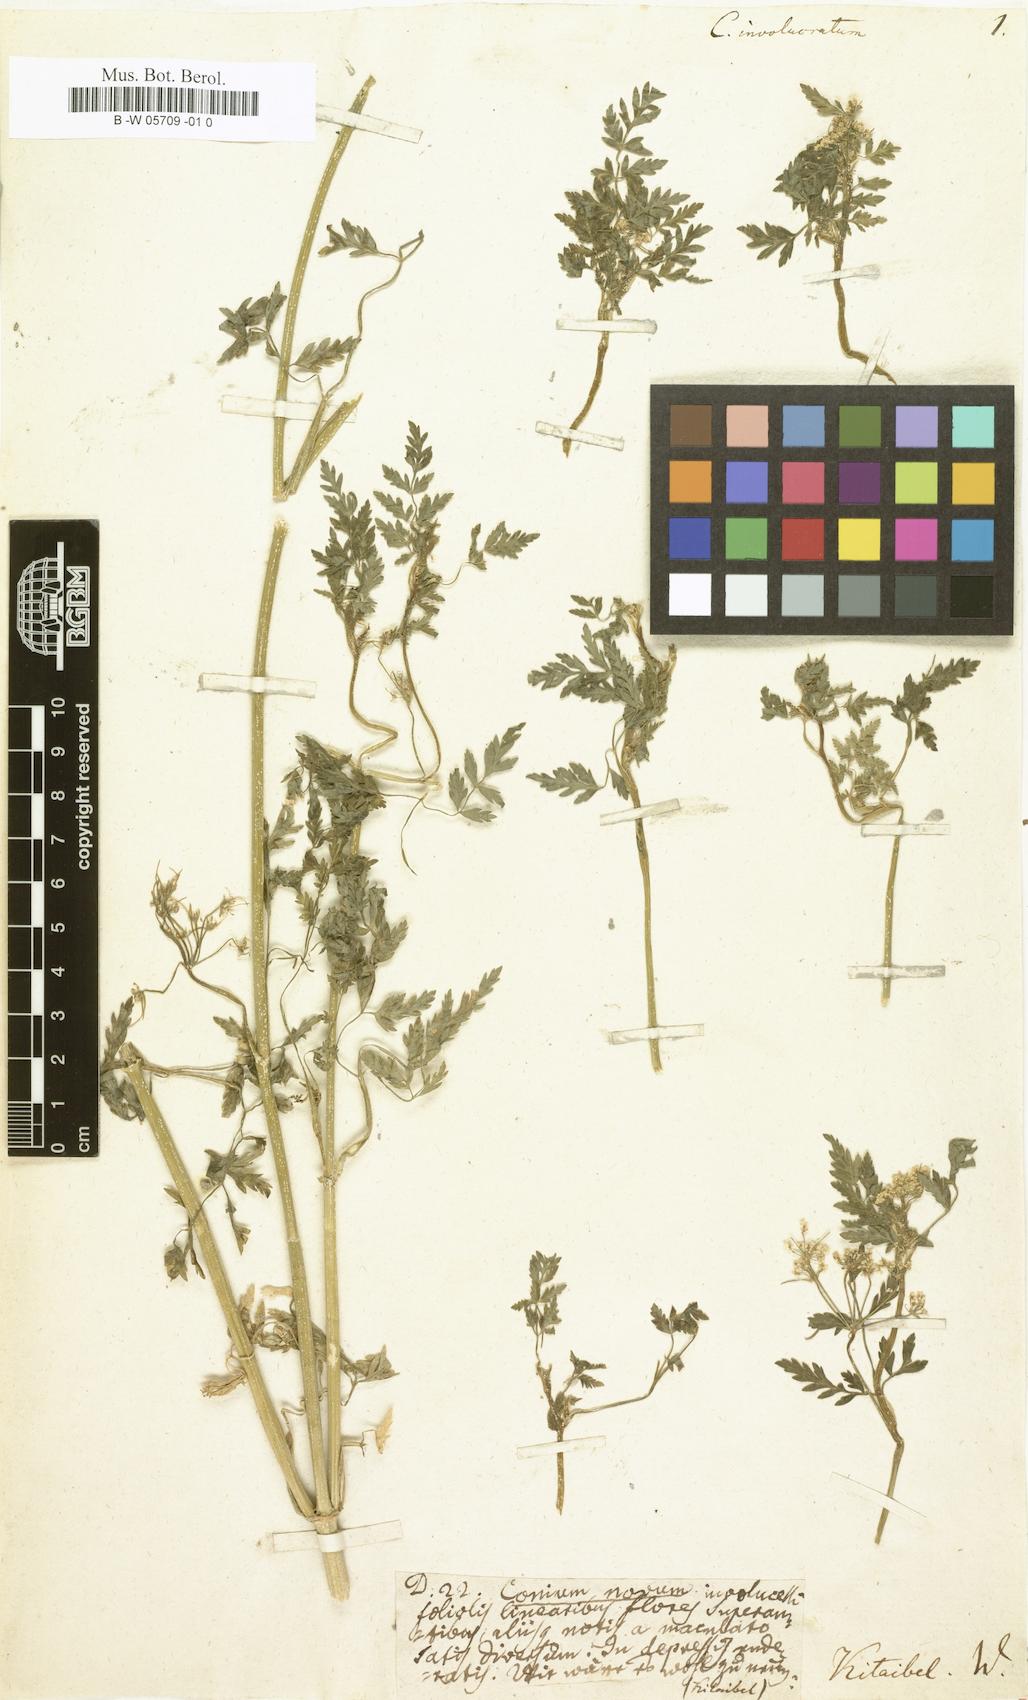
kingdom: Plantae
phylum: Tracheophyta
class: Magnoliopsida
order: Apiales
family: Apiaceae
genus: Conium
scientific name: Conium
